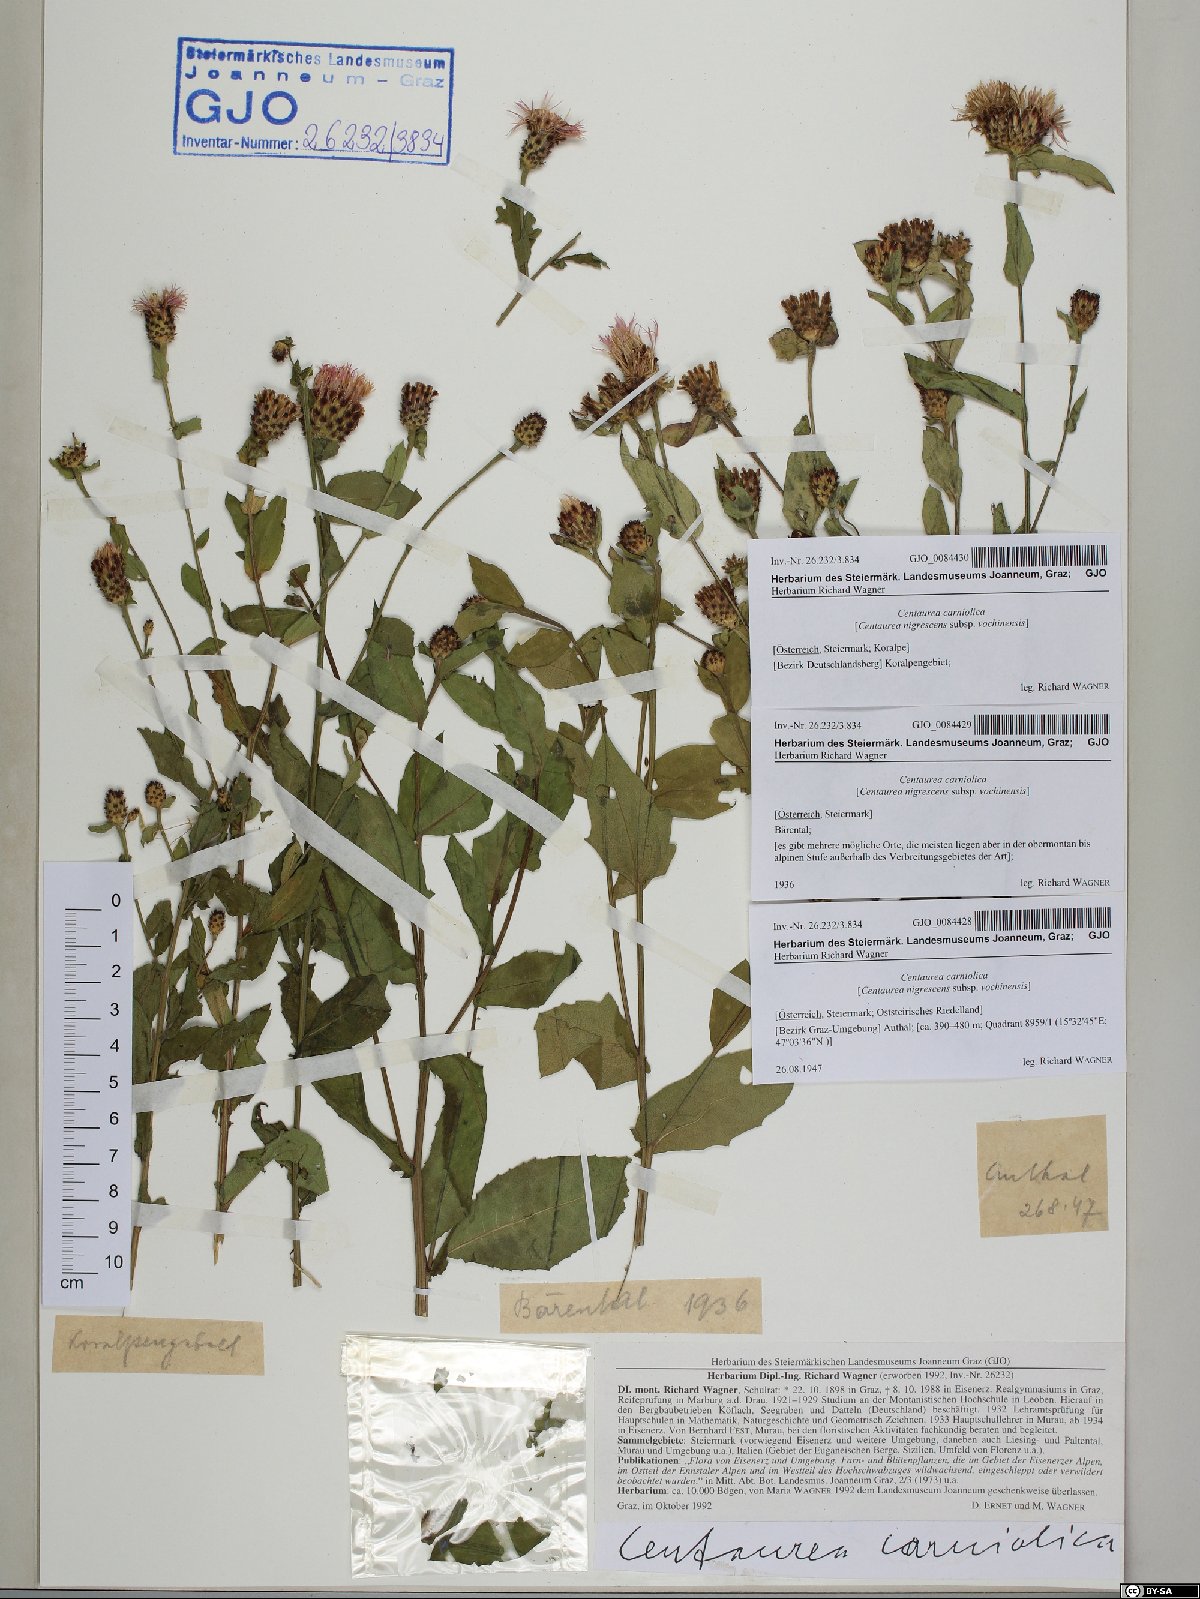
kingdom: Plantae
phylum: Tracheophyta
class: Magnoliopsida
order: Asterales
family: Asteraceae
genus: Centaurea
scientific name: Centaurea carniolica
